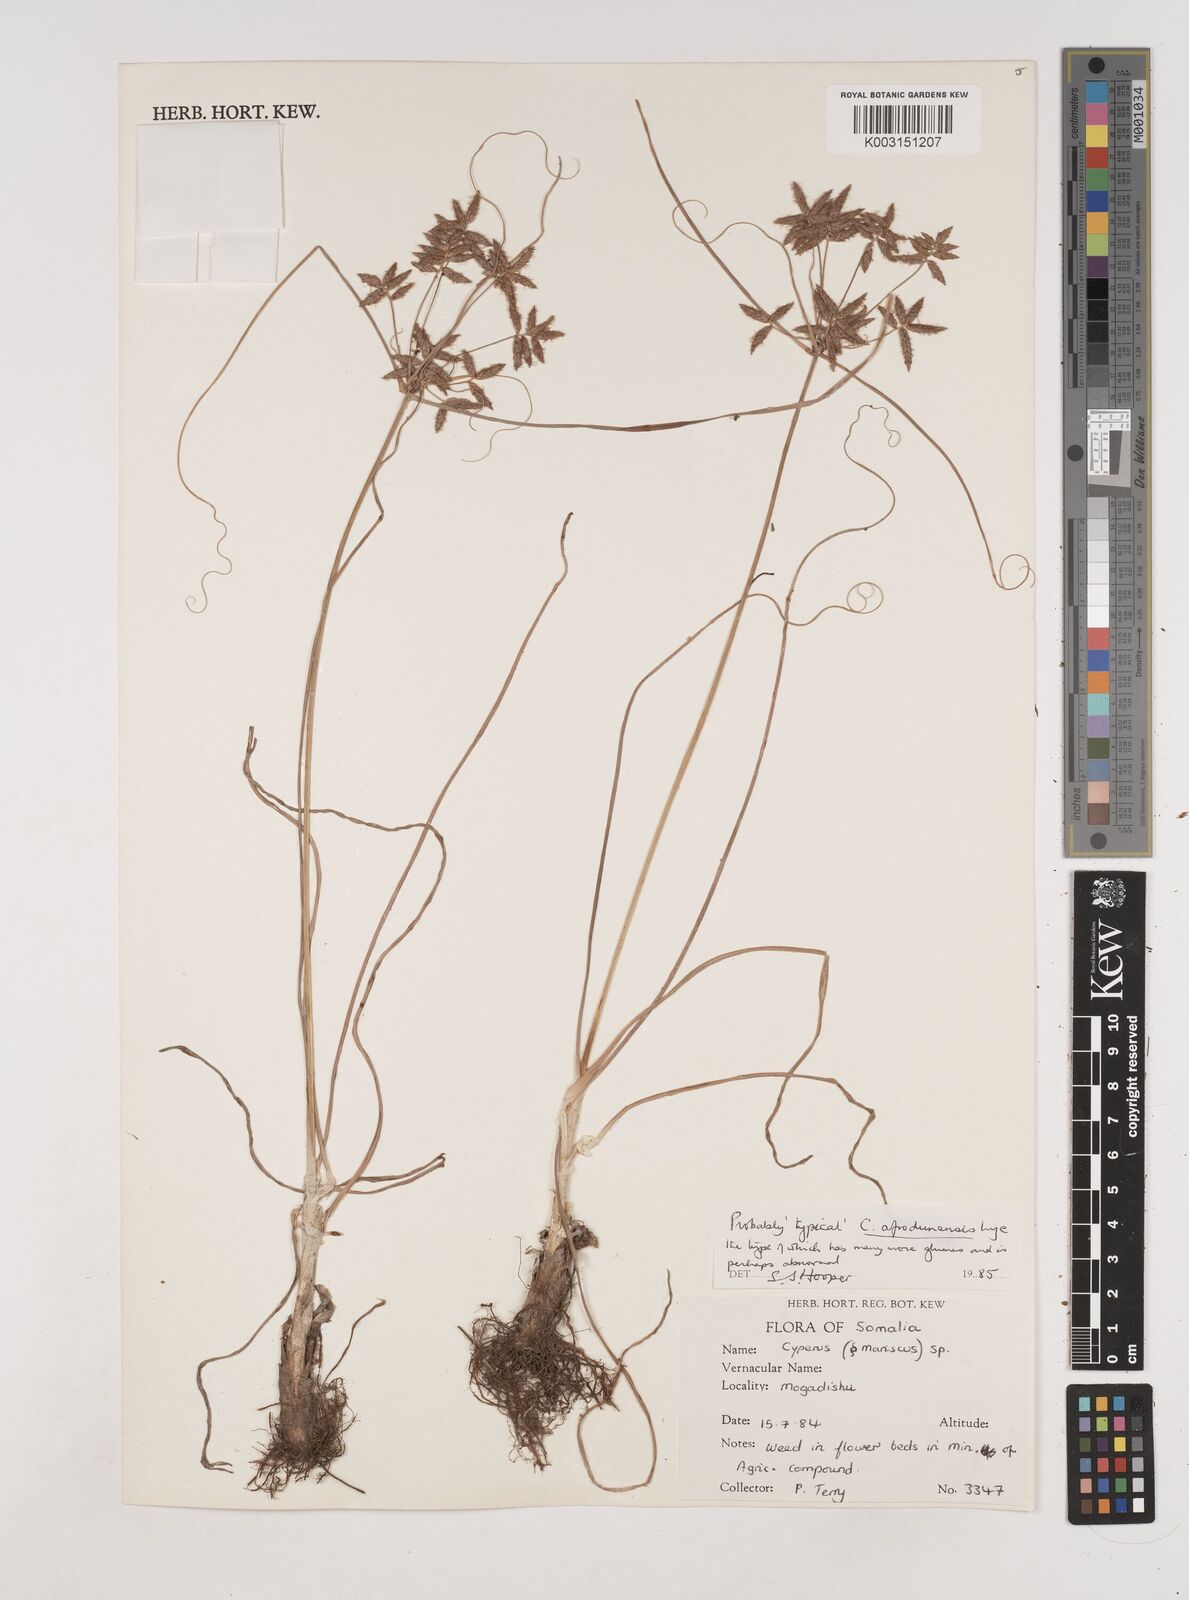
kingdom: Plantae
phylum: Tracheophyta
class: Liliopsida
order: Poales
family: Cyperaceae
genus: Cyperus
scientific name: Cyperus afrodunensis
